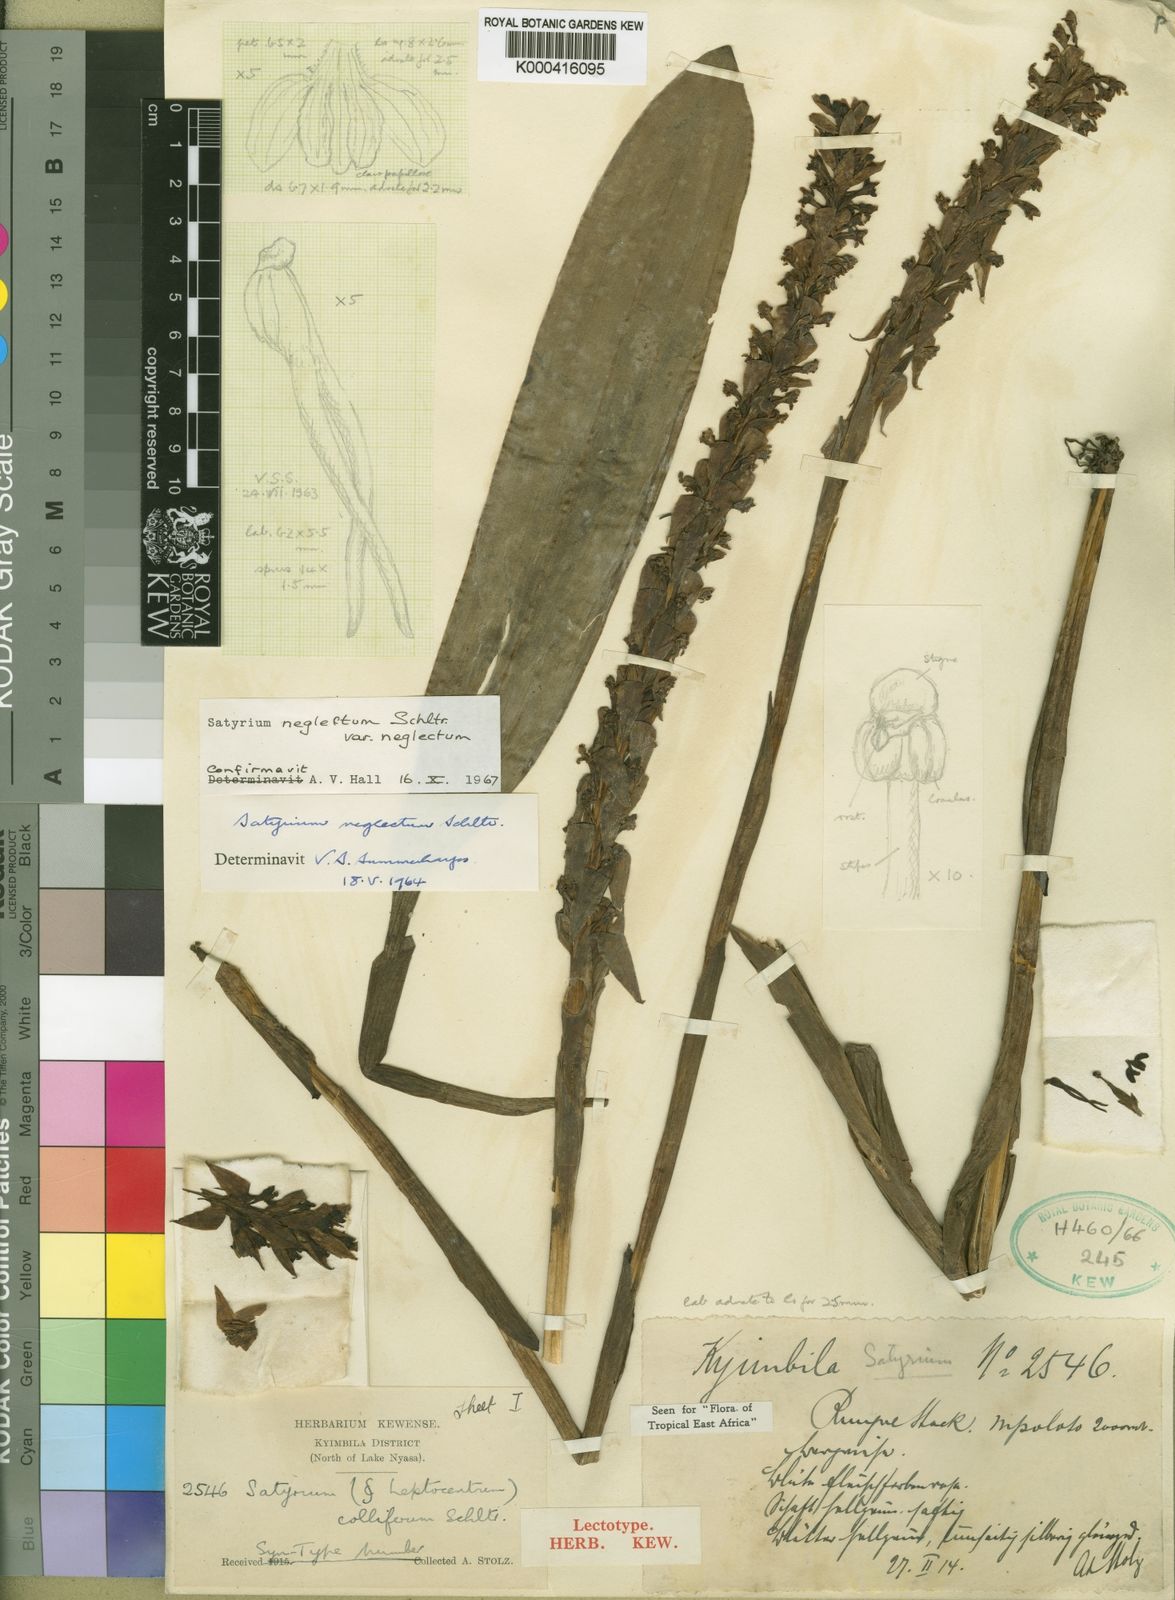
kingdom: Plantae
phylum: Tracheophyta
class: Liliopsida
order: Asparagales
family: Orchidaceae
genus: Satyrium
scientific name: Satyrium neglectum
